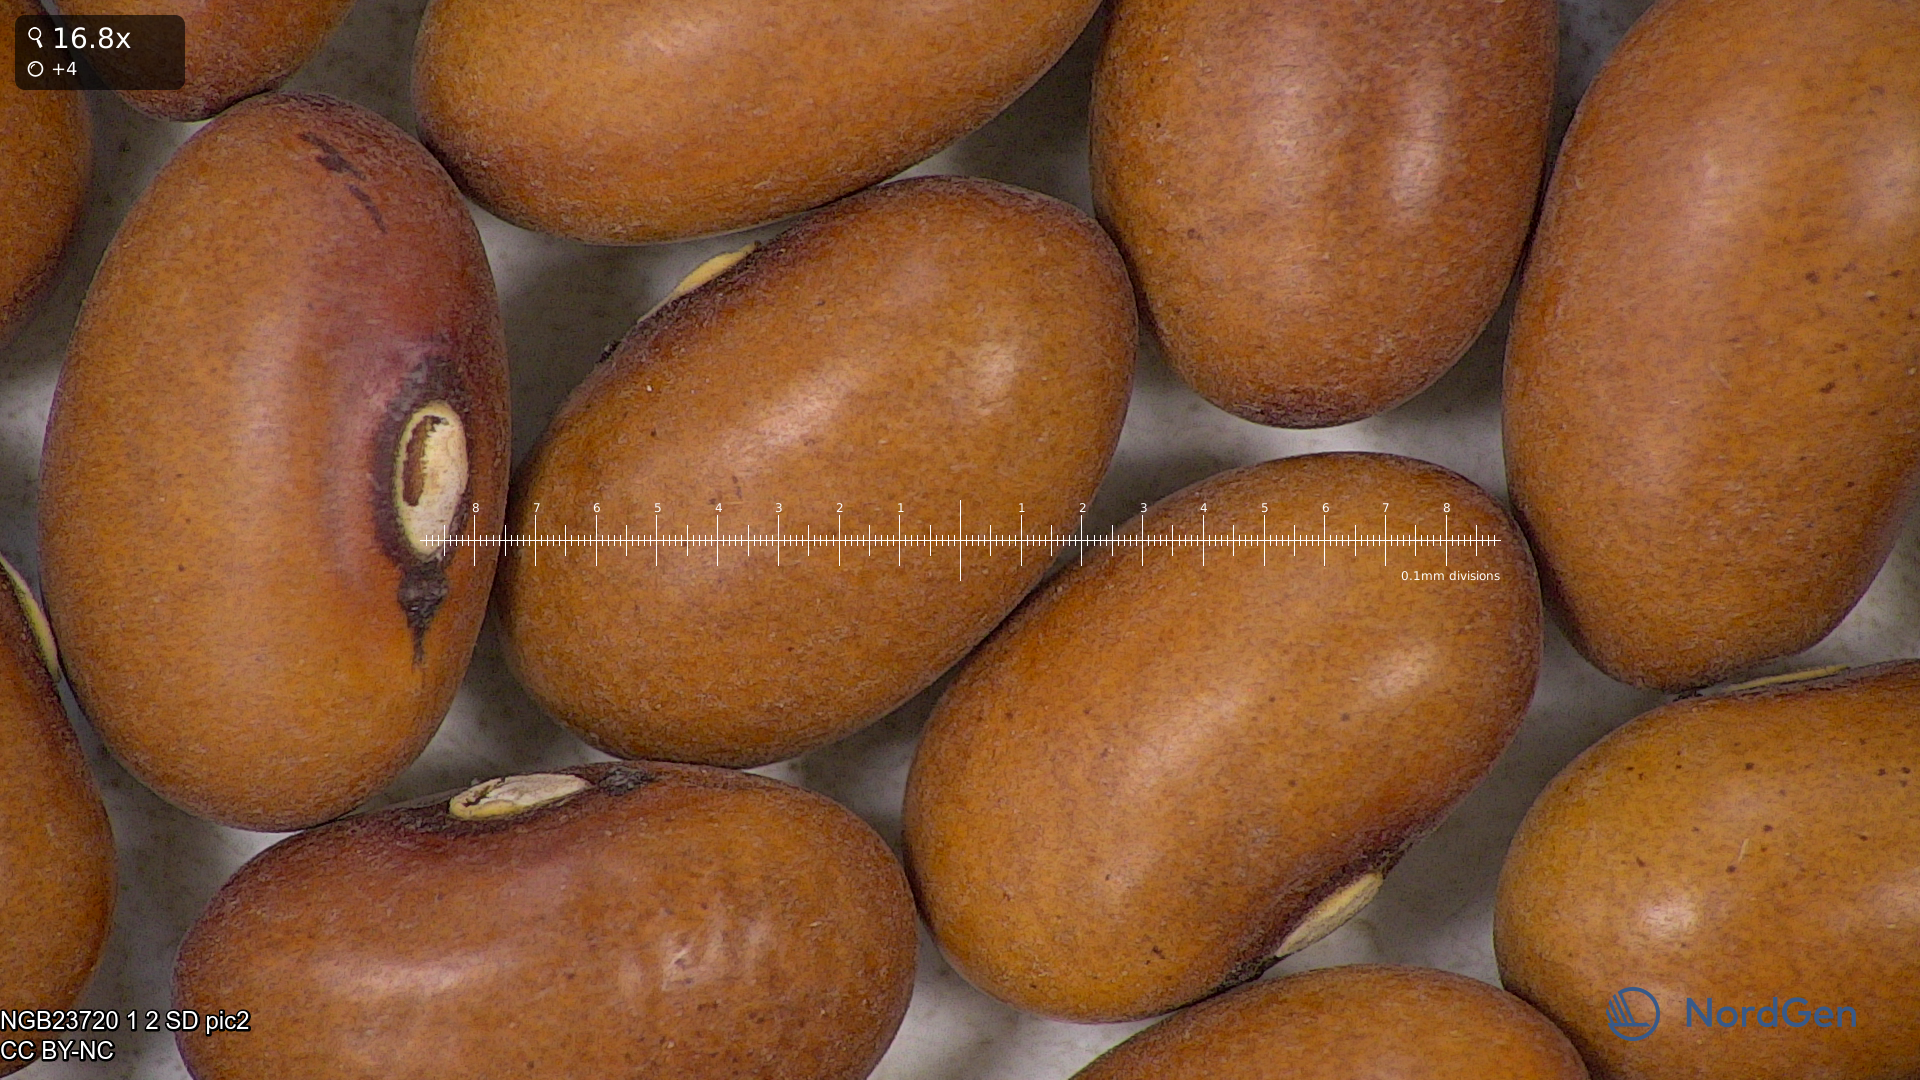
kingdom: Plantae
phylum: Tracheophyta
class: Magnoliopsida
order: Fabales
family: Fabaceae
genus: Phaseolus
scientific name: Phaseolus vulgaris
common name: Bean
